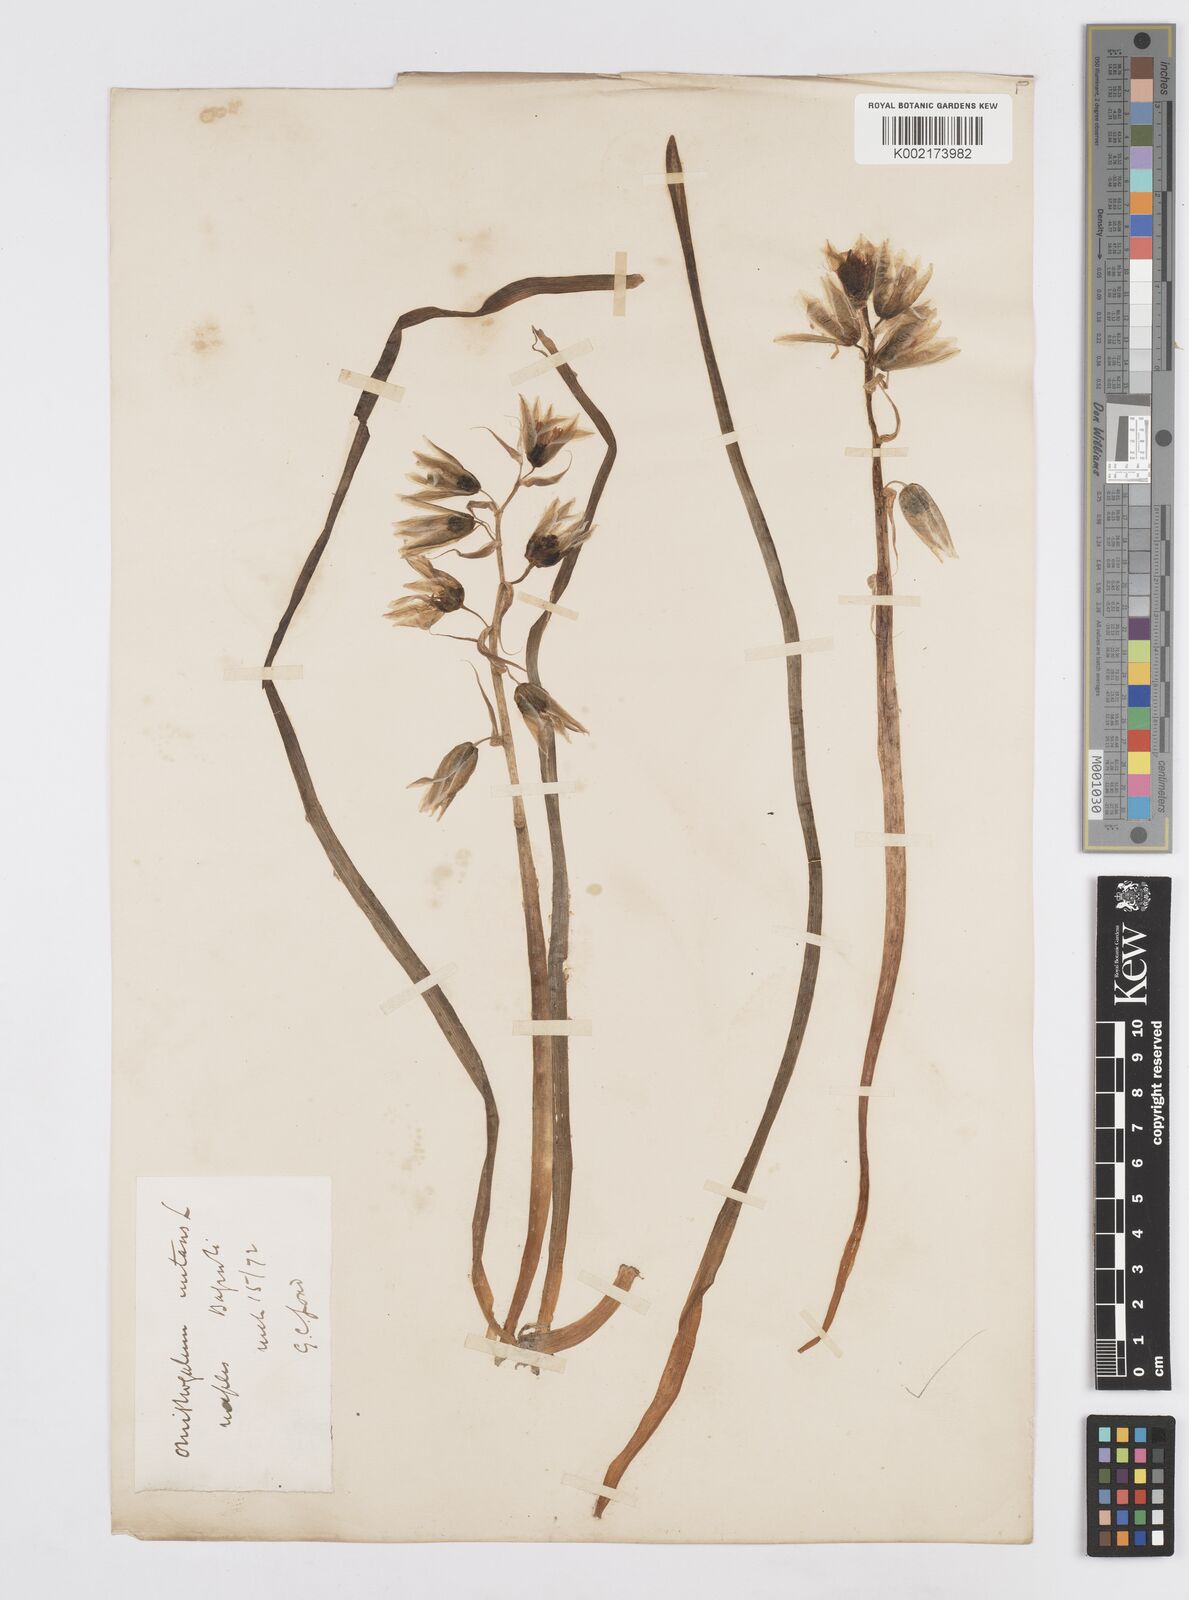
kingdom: Plantae
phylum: Tracheophyta
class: Liliopsida
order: Asparagales
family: Asparagaceae
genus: Ornithogalum
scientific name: Ornithogalum nutans
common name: Drooping star-of-bethlehem
